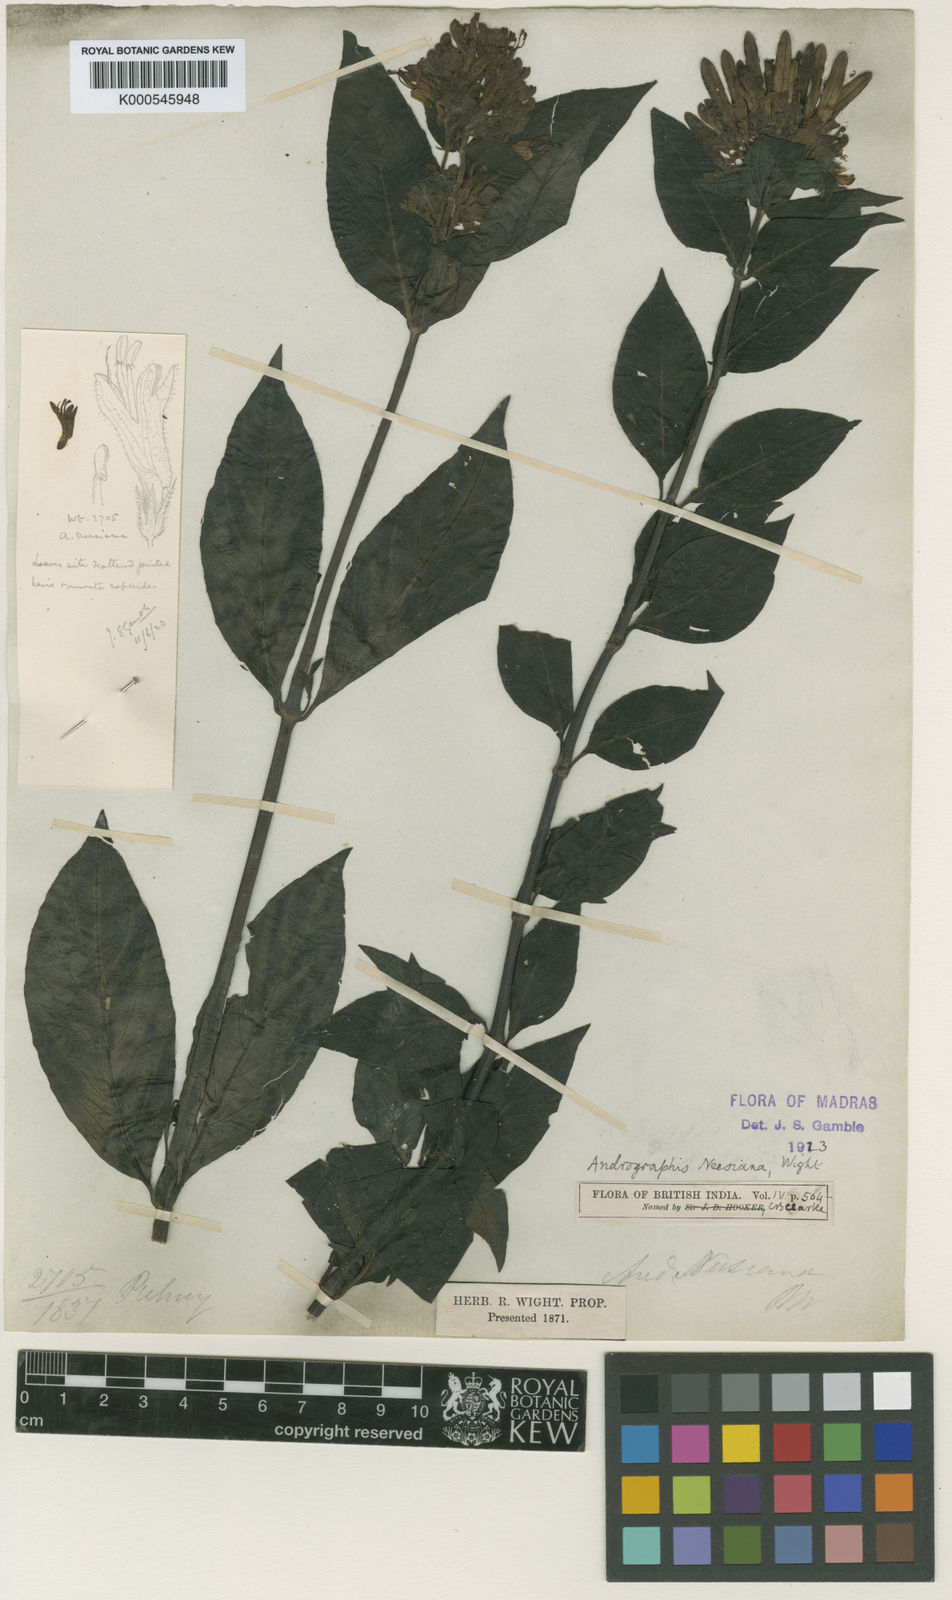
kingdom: Plantae
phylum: Tracheophyta
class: Magnoliopsida
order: Lamiales
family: Acanthaceae
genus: Andrographis
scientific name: Andrographis neesiana
